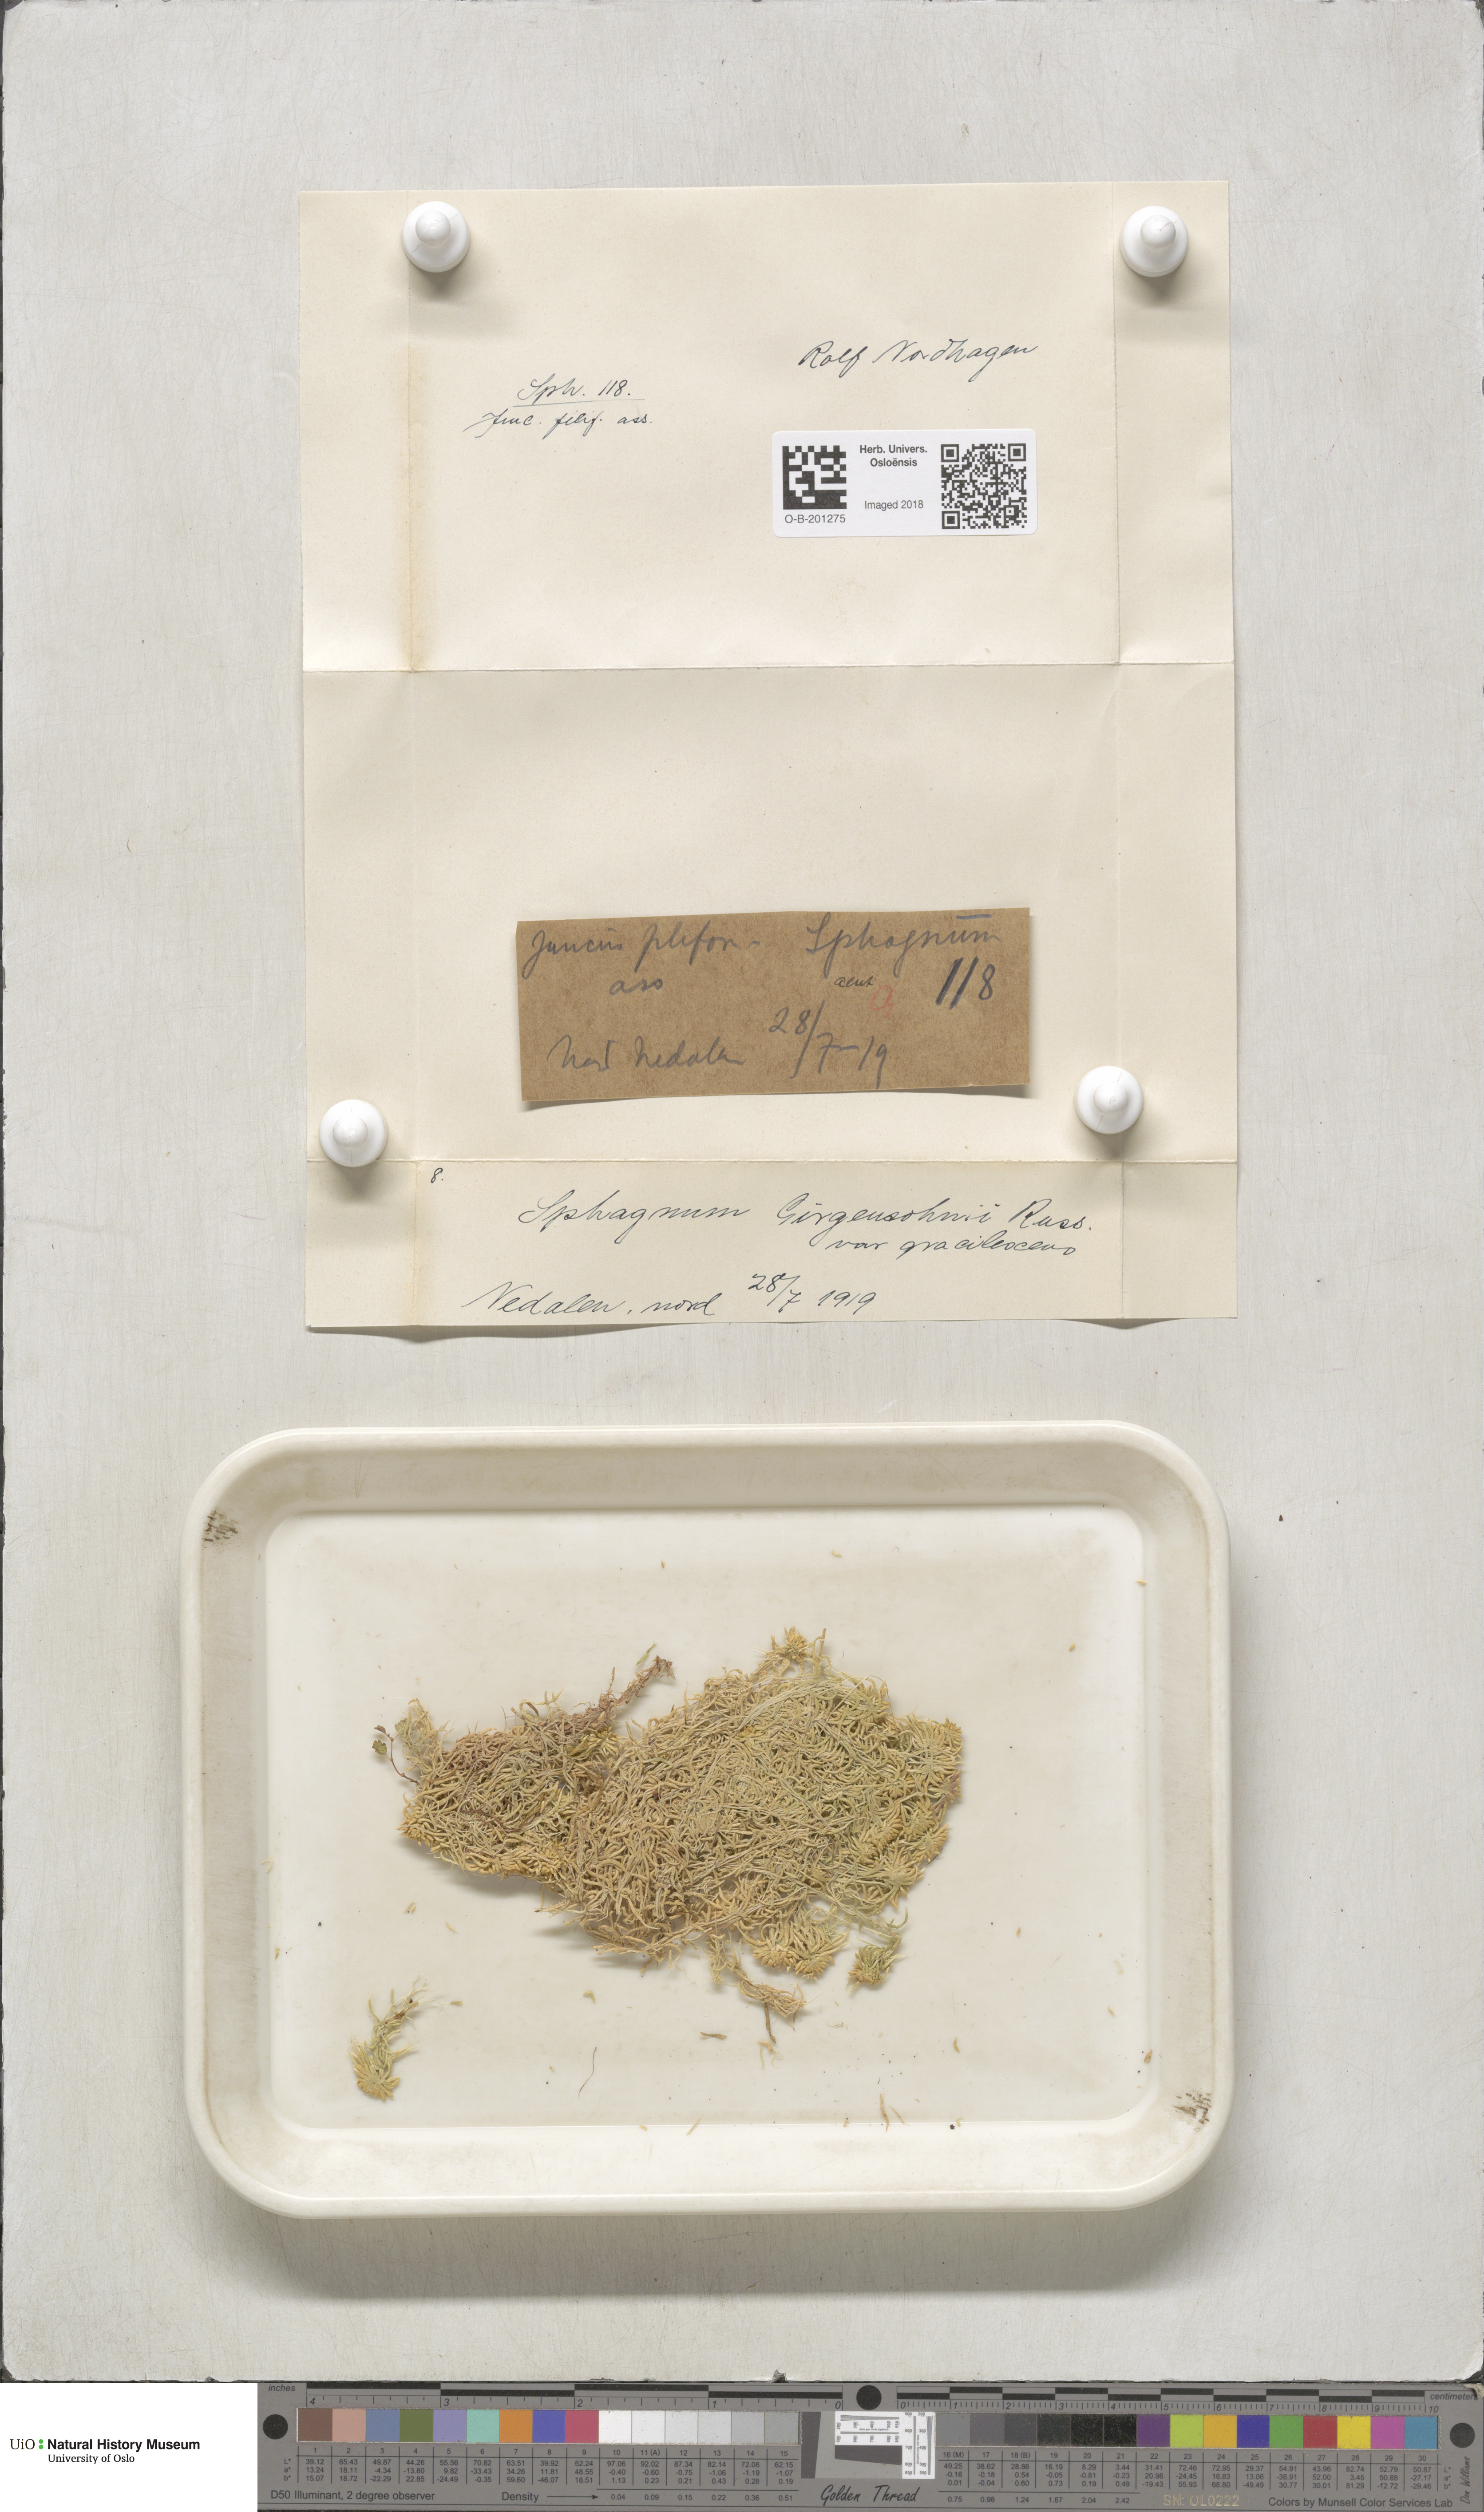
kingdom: Plantae
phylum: Bryophyta
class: Sphagnopsida
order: Sphagnales
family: Sphagnaceae
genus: Sphagnum
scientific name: Sphagnum girgensohnii
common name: Girgensohn's peat moss
